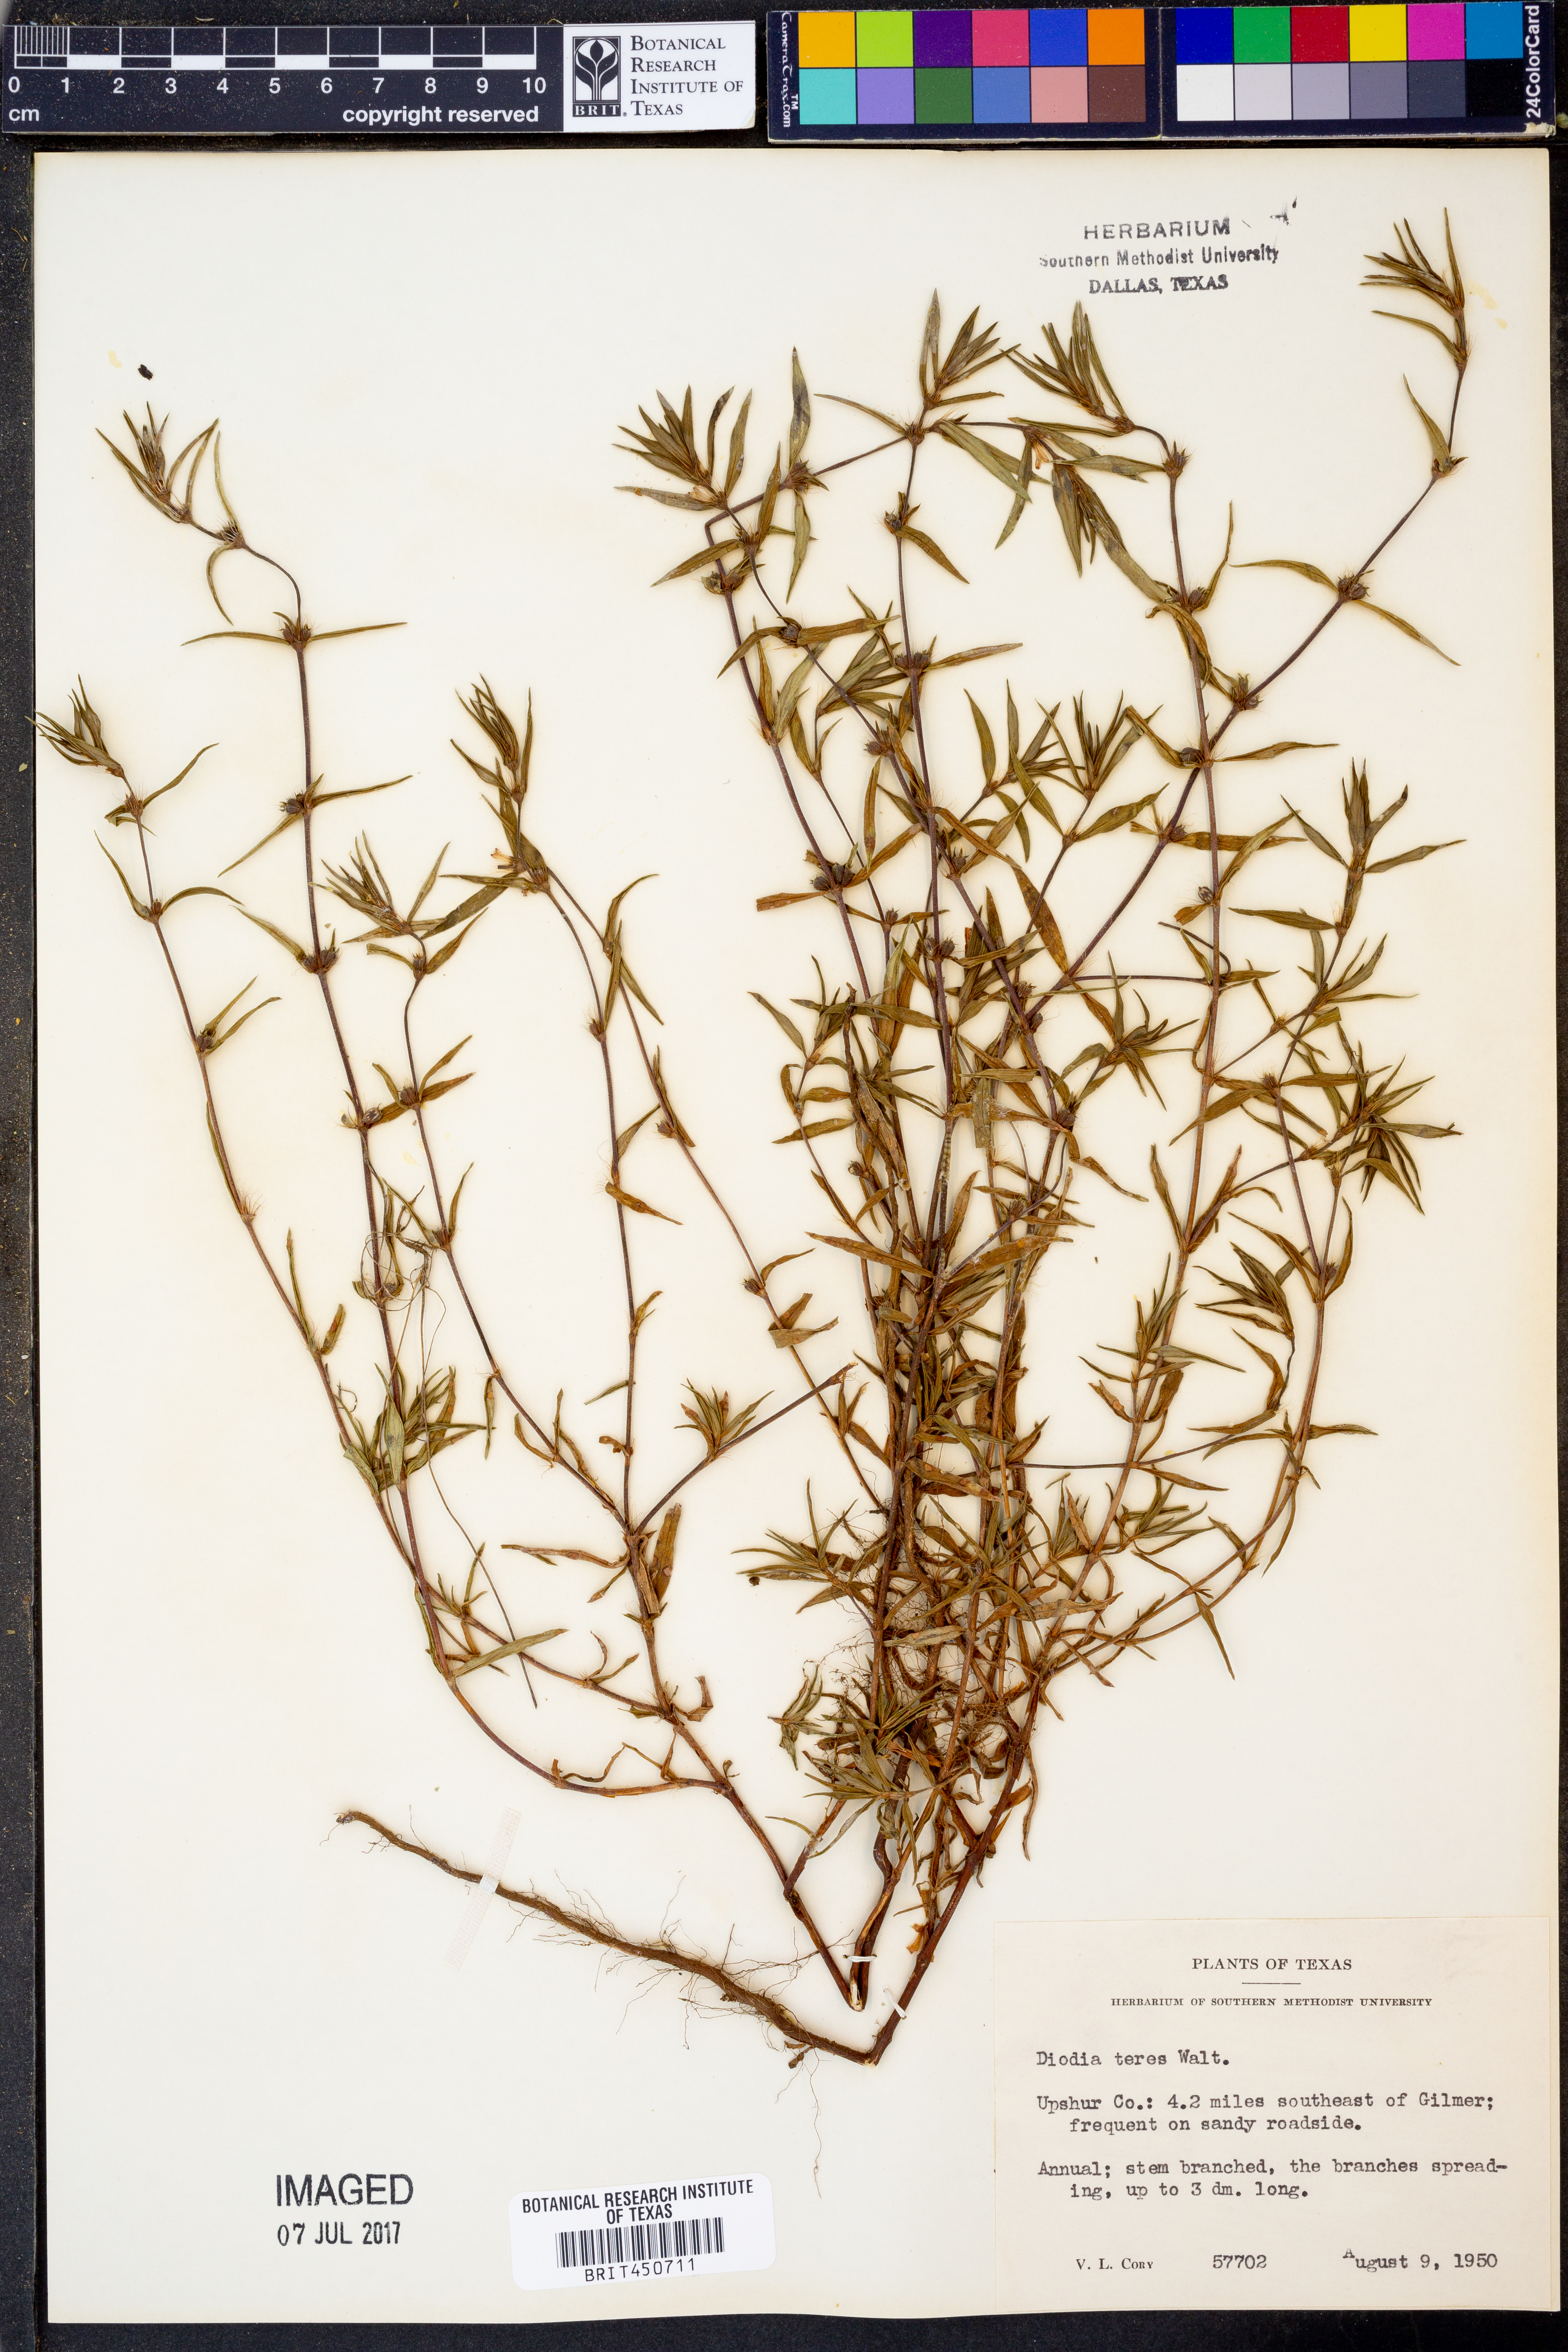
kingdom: Plantae
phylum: Tracheophyta
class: Magnoliopsida
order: Gentianales
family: Rubiaceae
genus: Hexasepalum
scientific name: Hexasepalum teres
